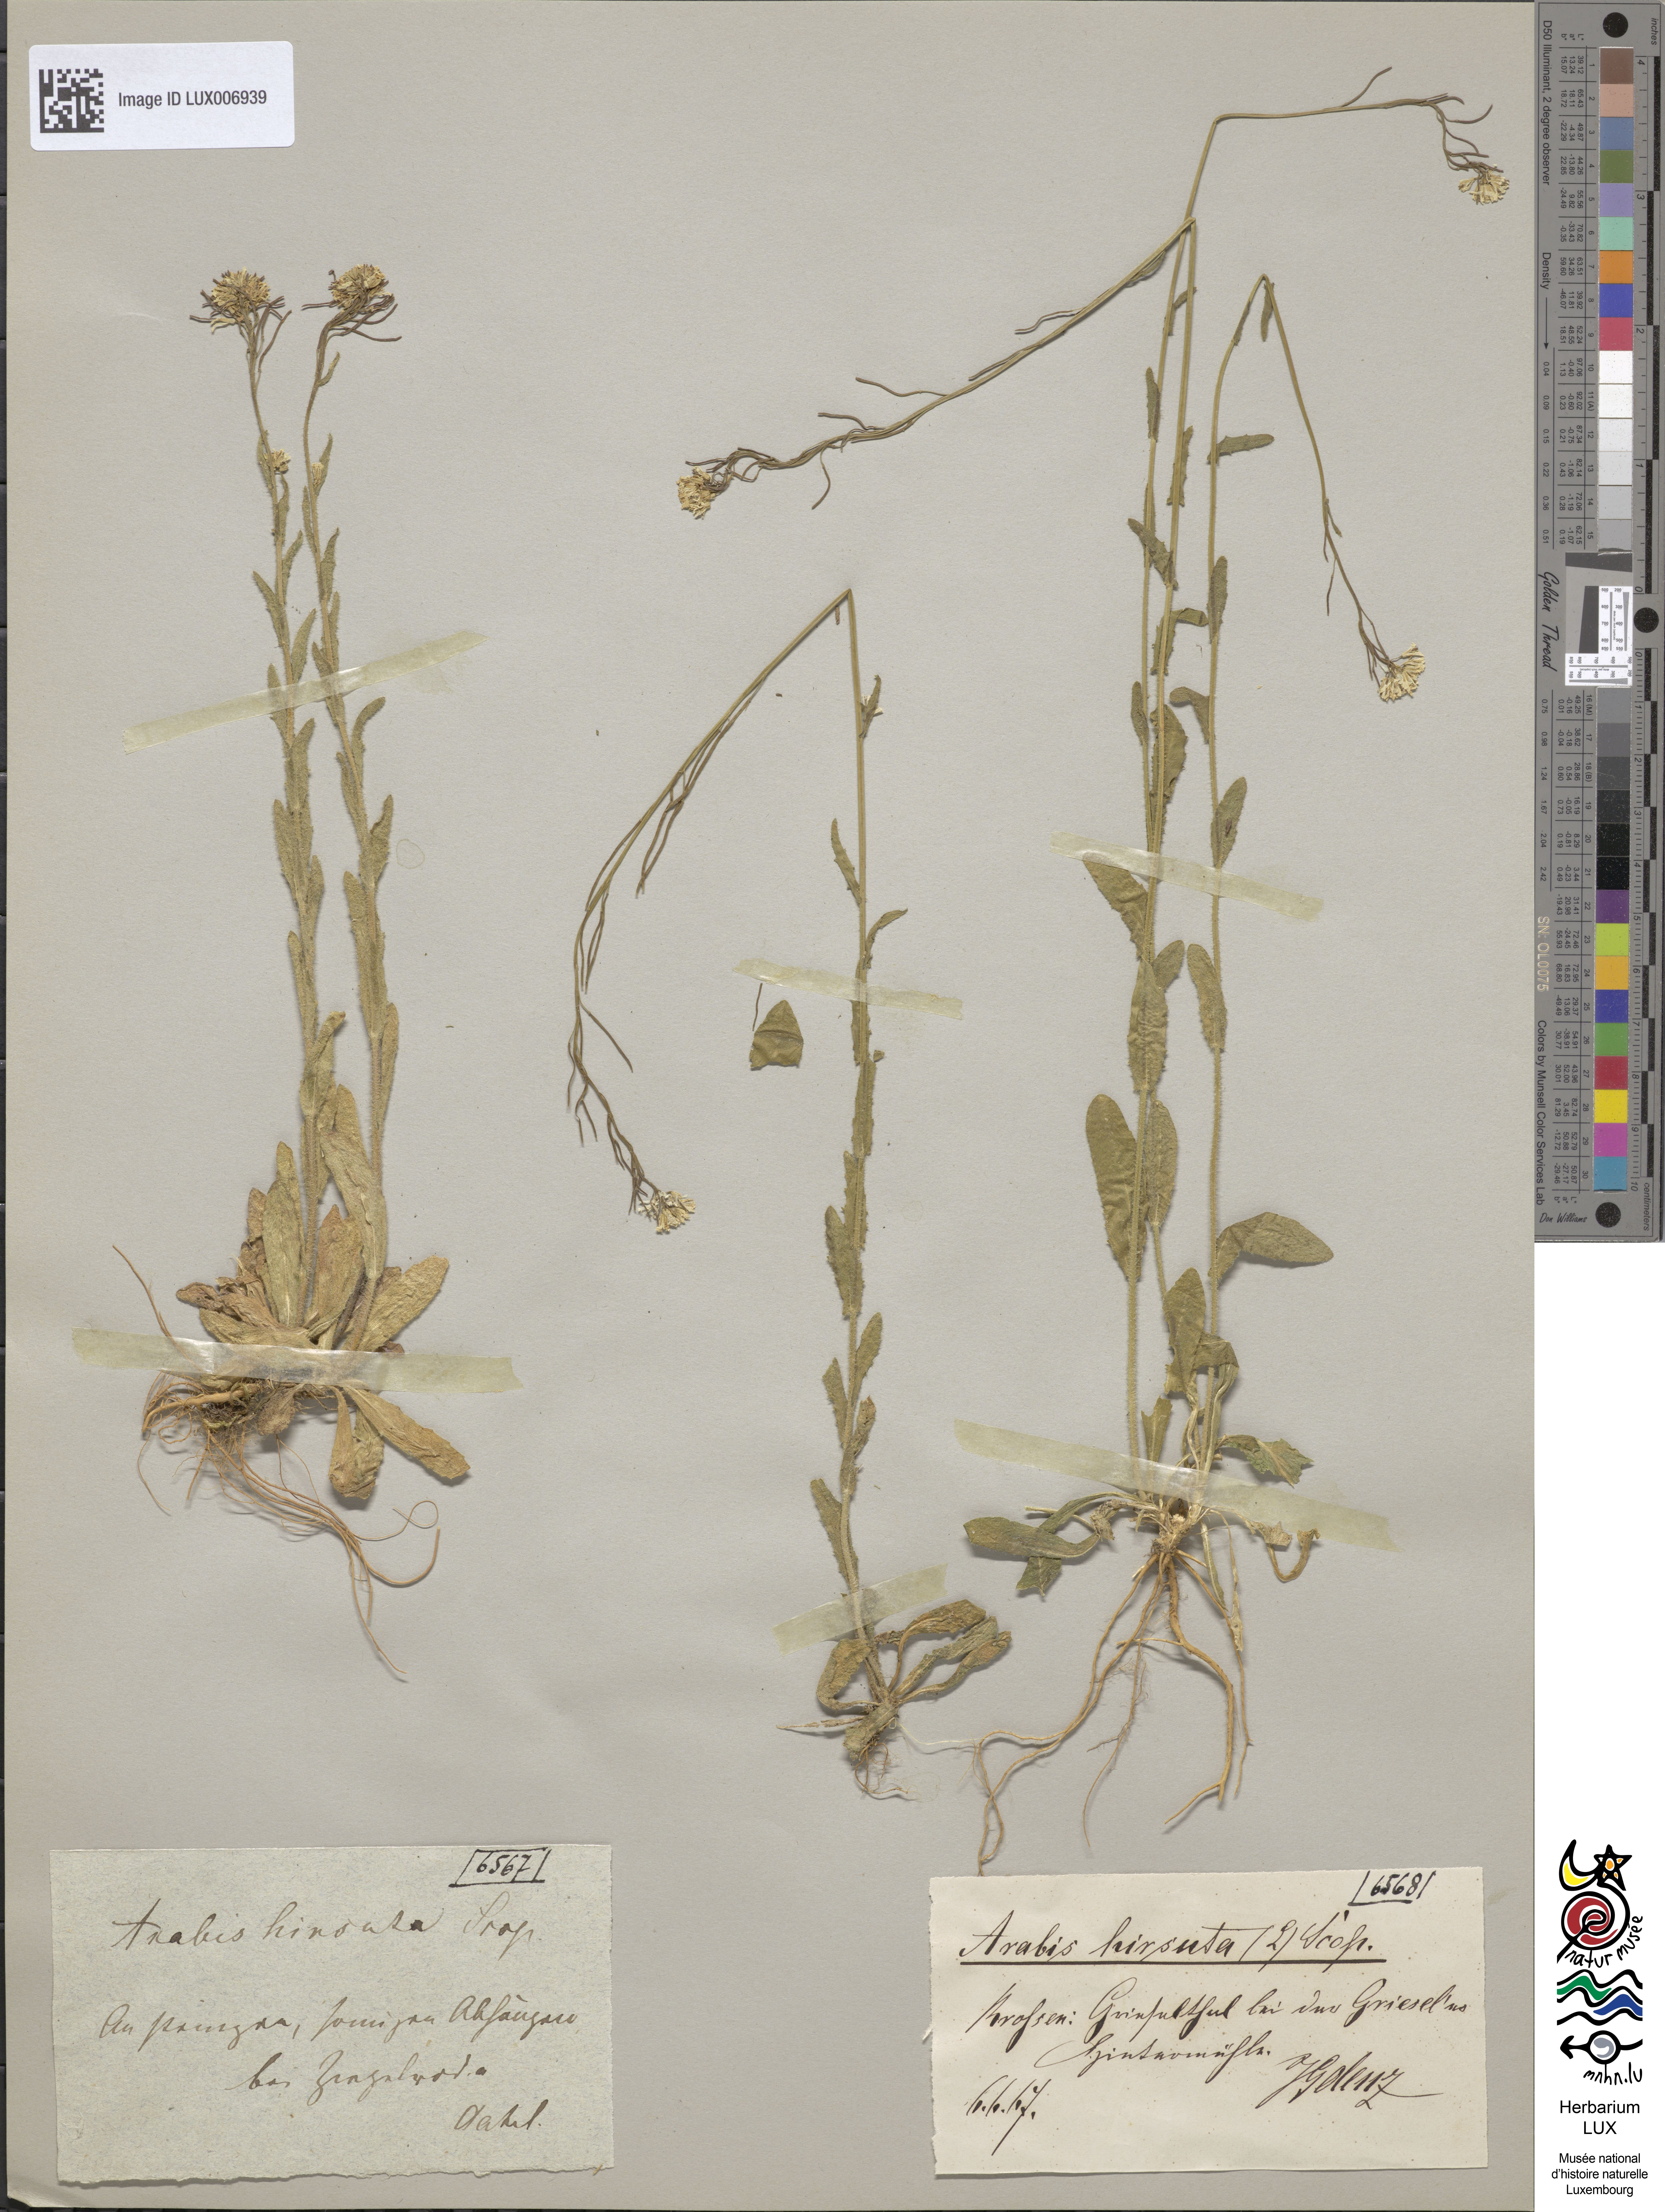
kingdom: Plantae
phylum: Tracheophyta
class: Magnoliopsida
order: Brassicales
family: Brassicaceae
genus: Arabis
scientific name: Arabis hirsuta
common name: Hairy rock-cress
